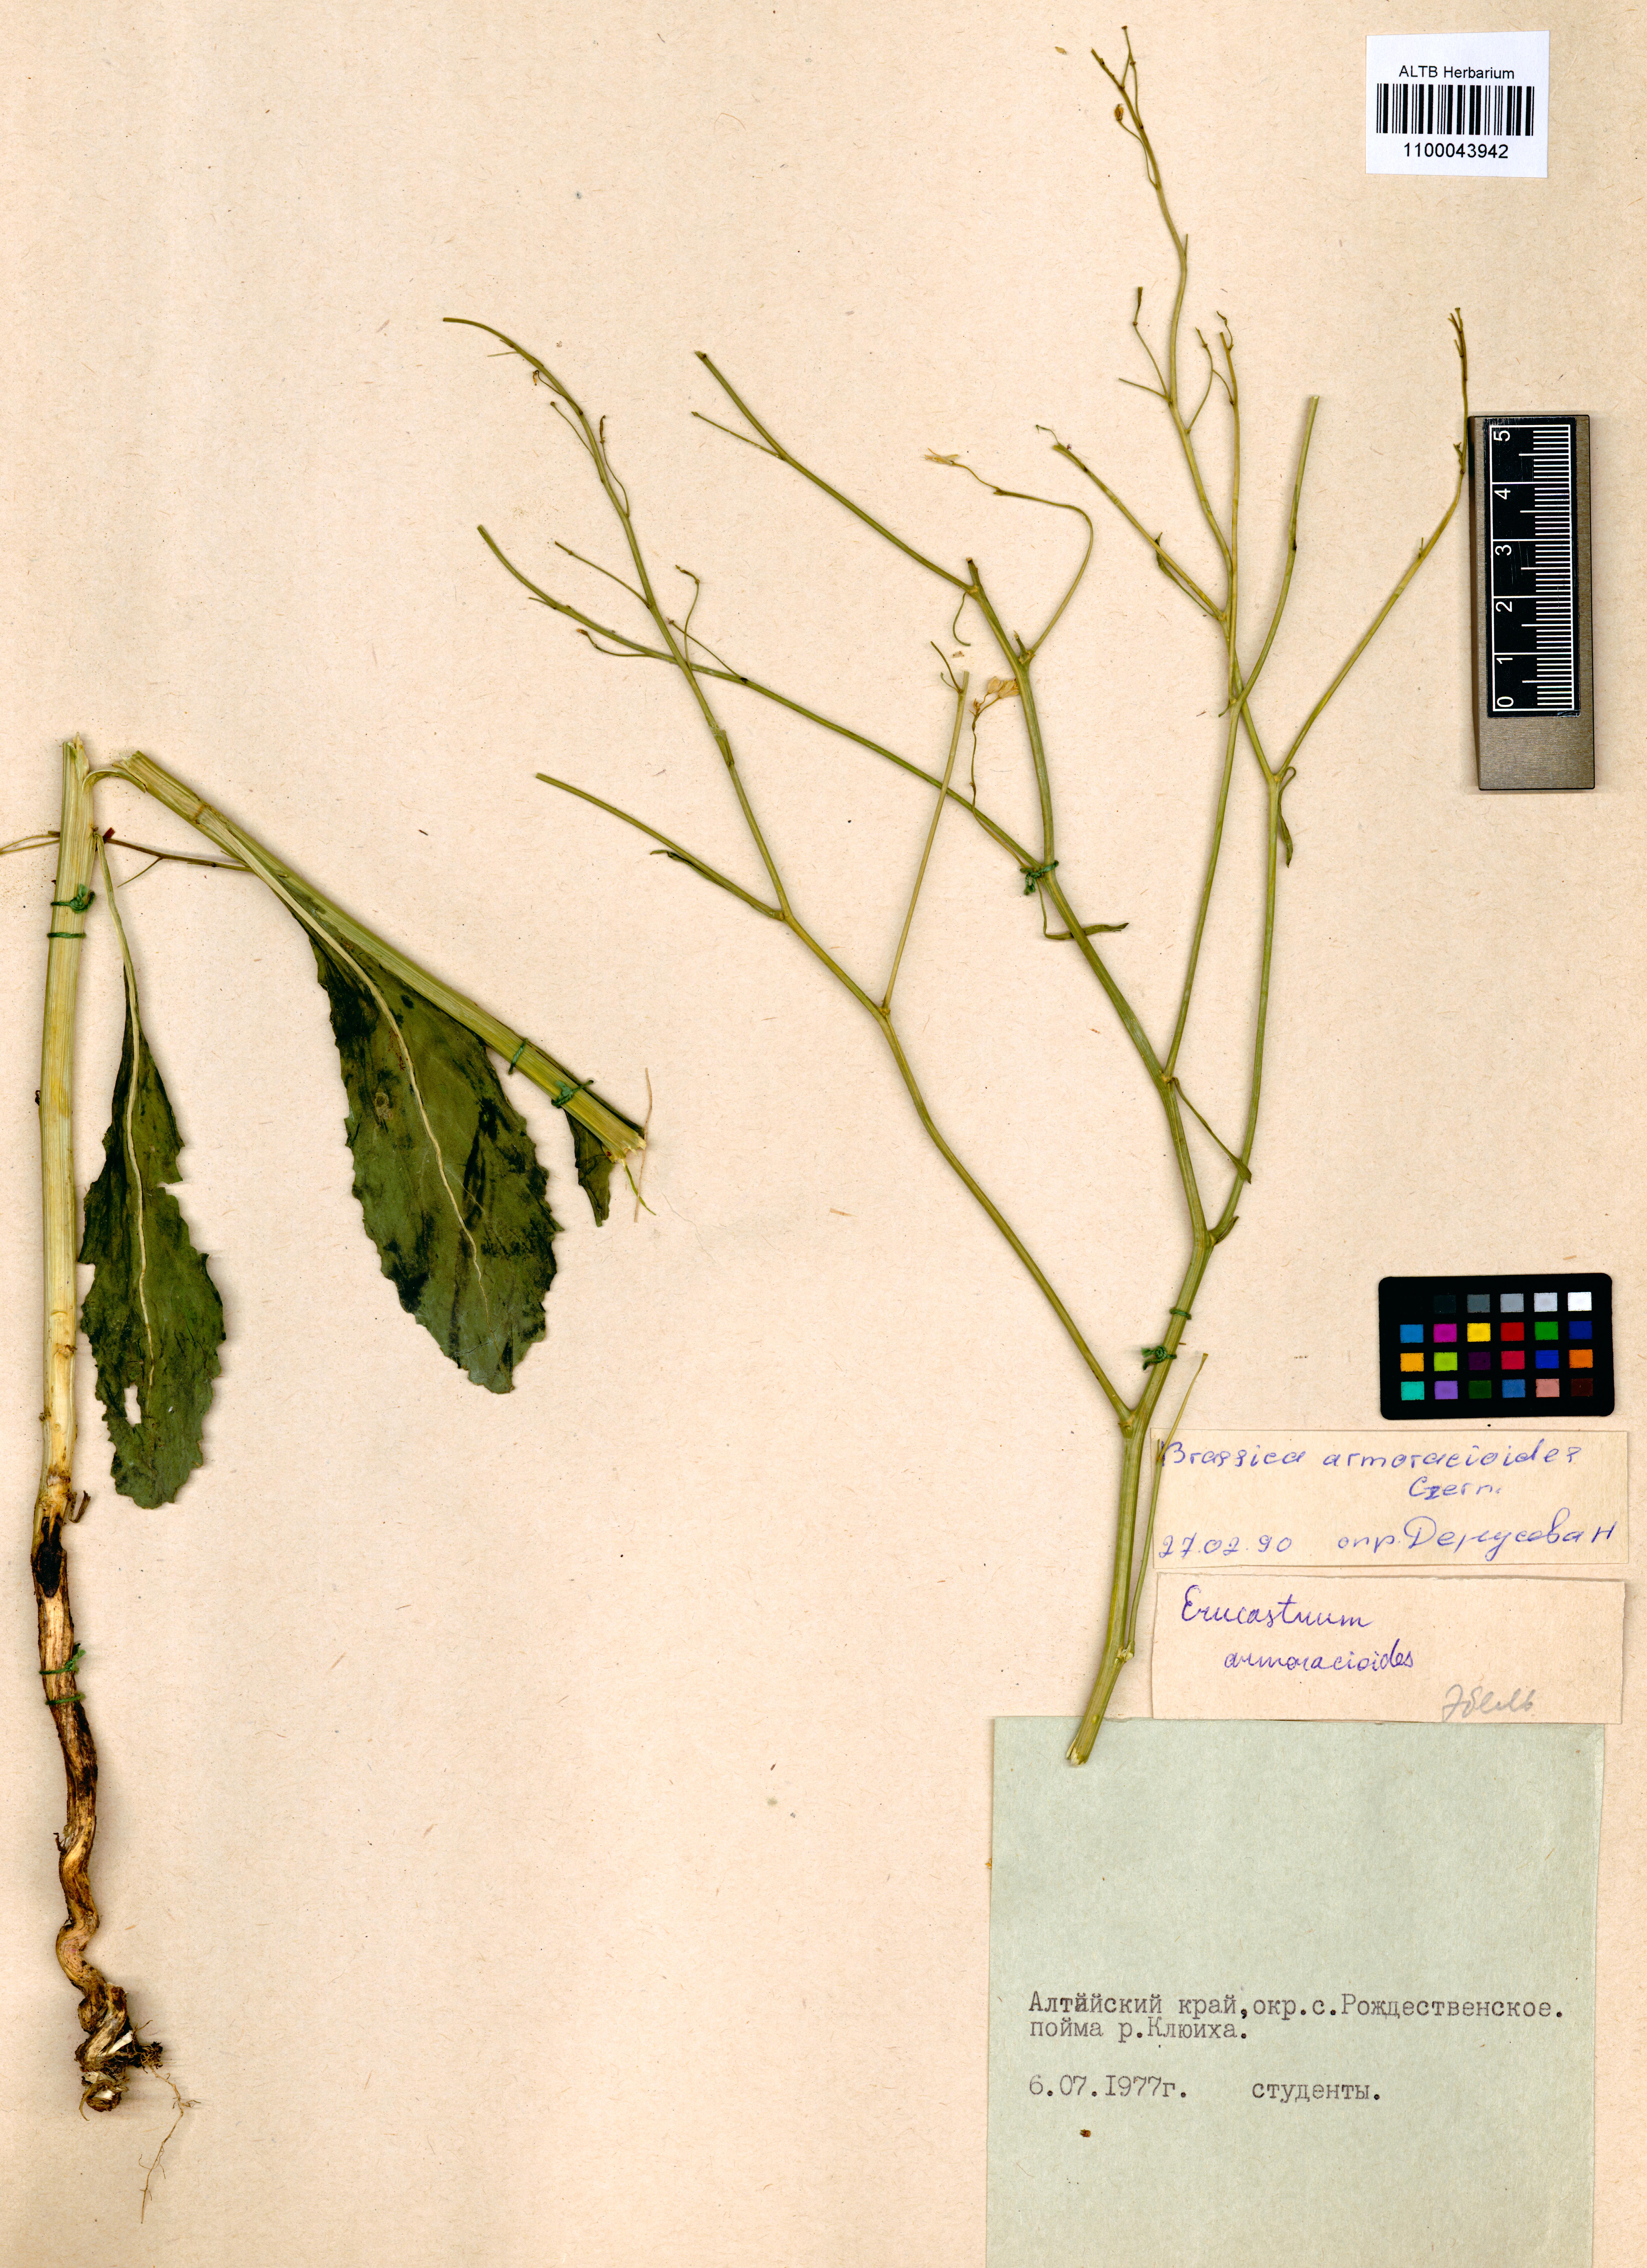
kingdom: Plantae
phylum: Tracheophyta
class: Magnoliopsida
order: Brassicales
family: Brassicaceae
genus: Brassica
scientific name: Brassica elongata
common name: Long-stalked rape
